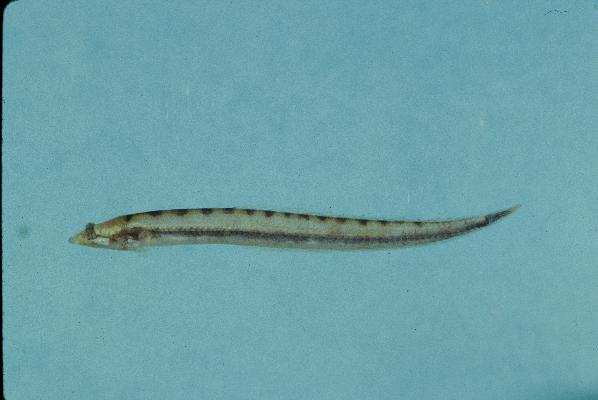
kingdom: Animalia
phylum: Chordata
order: Perciformes
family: Creediidae
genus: Chalixodytes
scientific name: Chalixodytes chameleontoculis
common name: Sand dart
